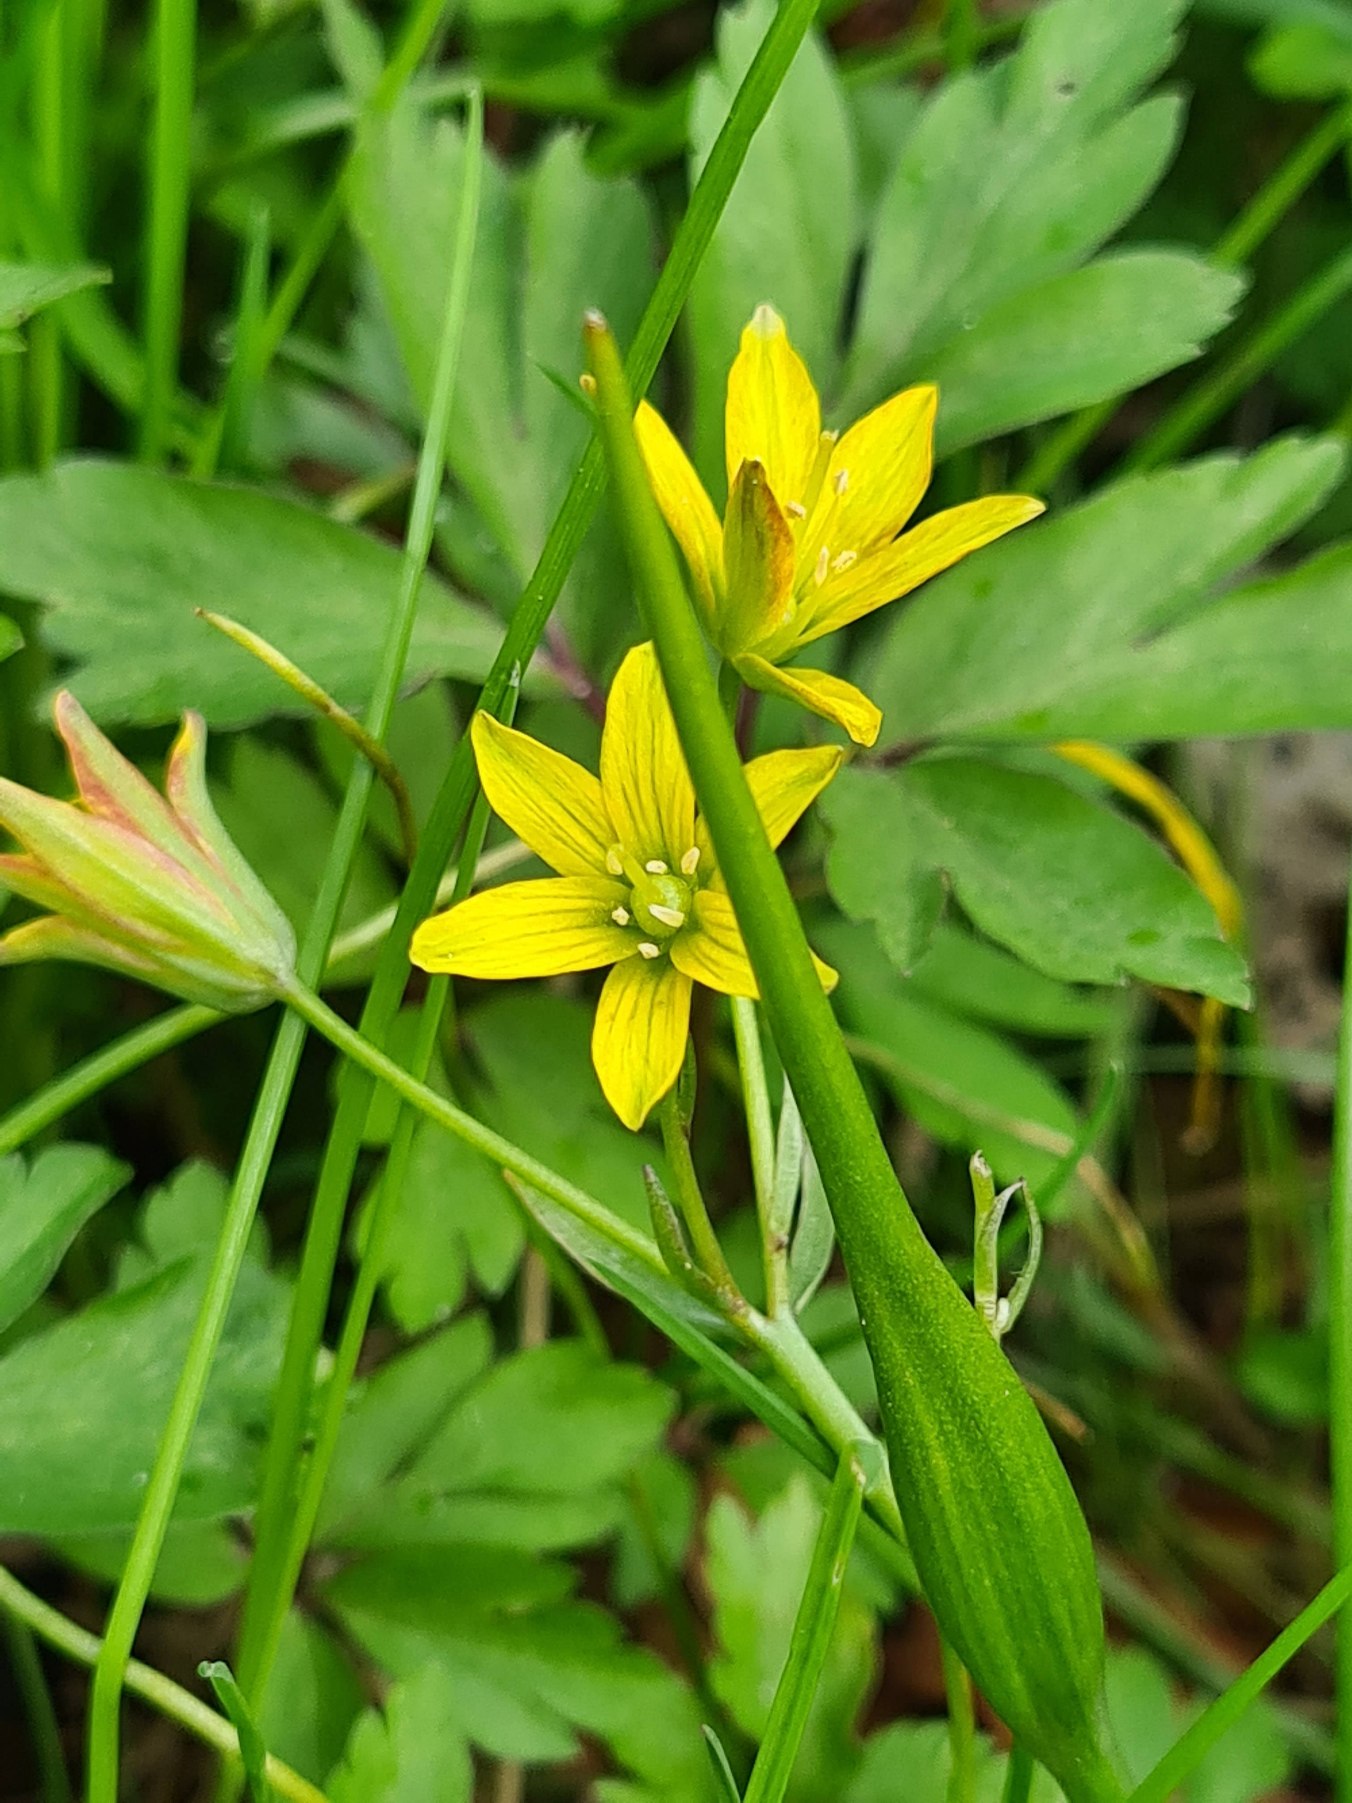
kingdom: Plantae
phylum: Tracheophyta
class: Liliopsida
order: Liliales
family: Liliaceae
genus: Gagea
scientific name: Gagea spathacea
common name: Hylster-guldstjerne
